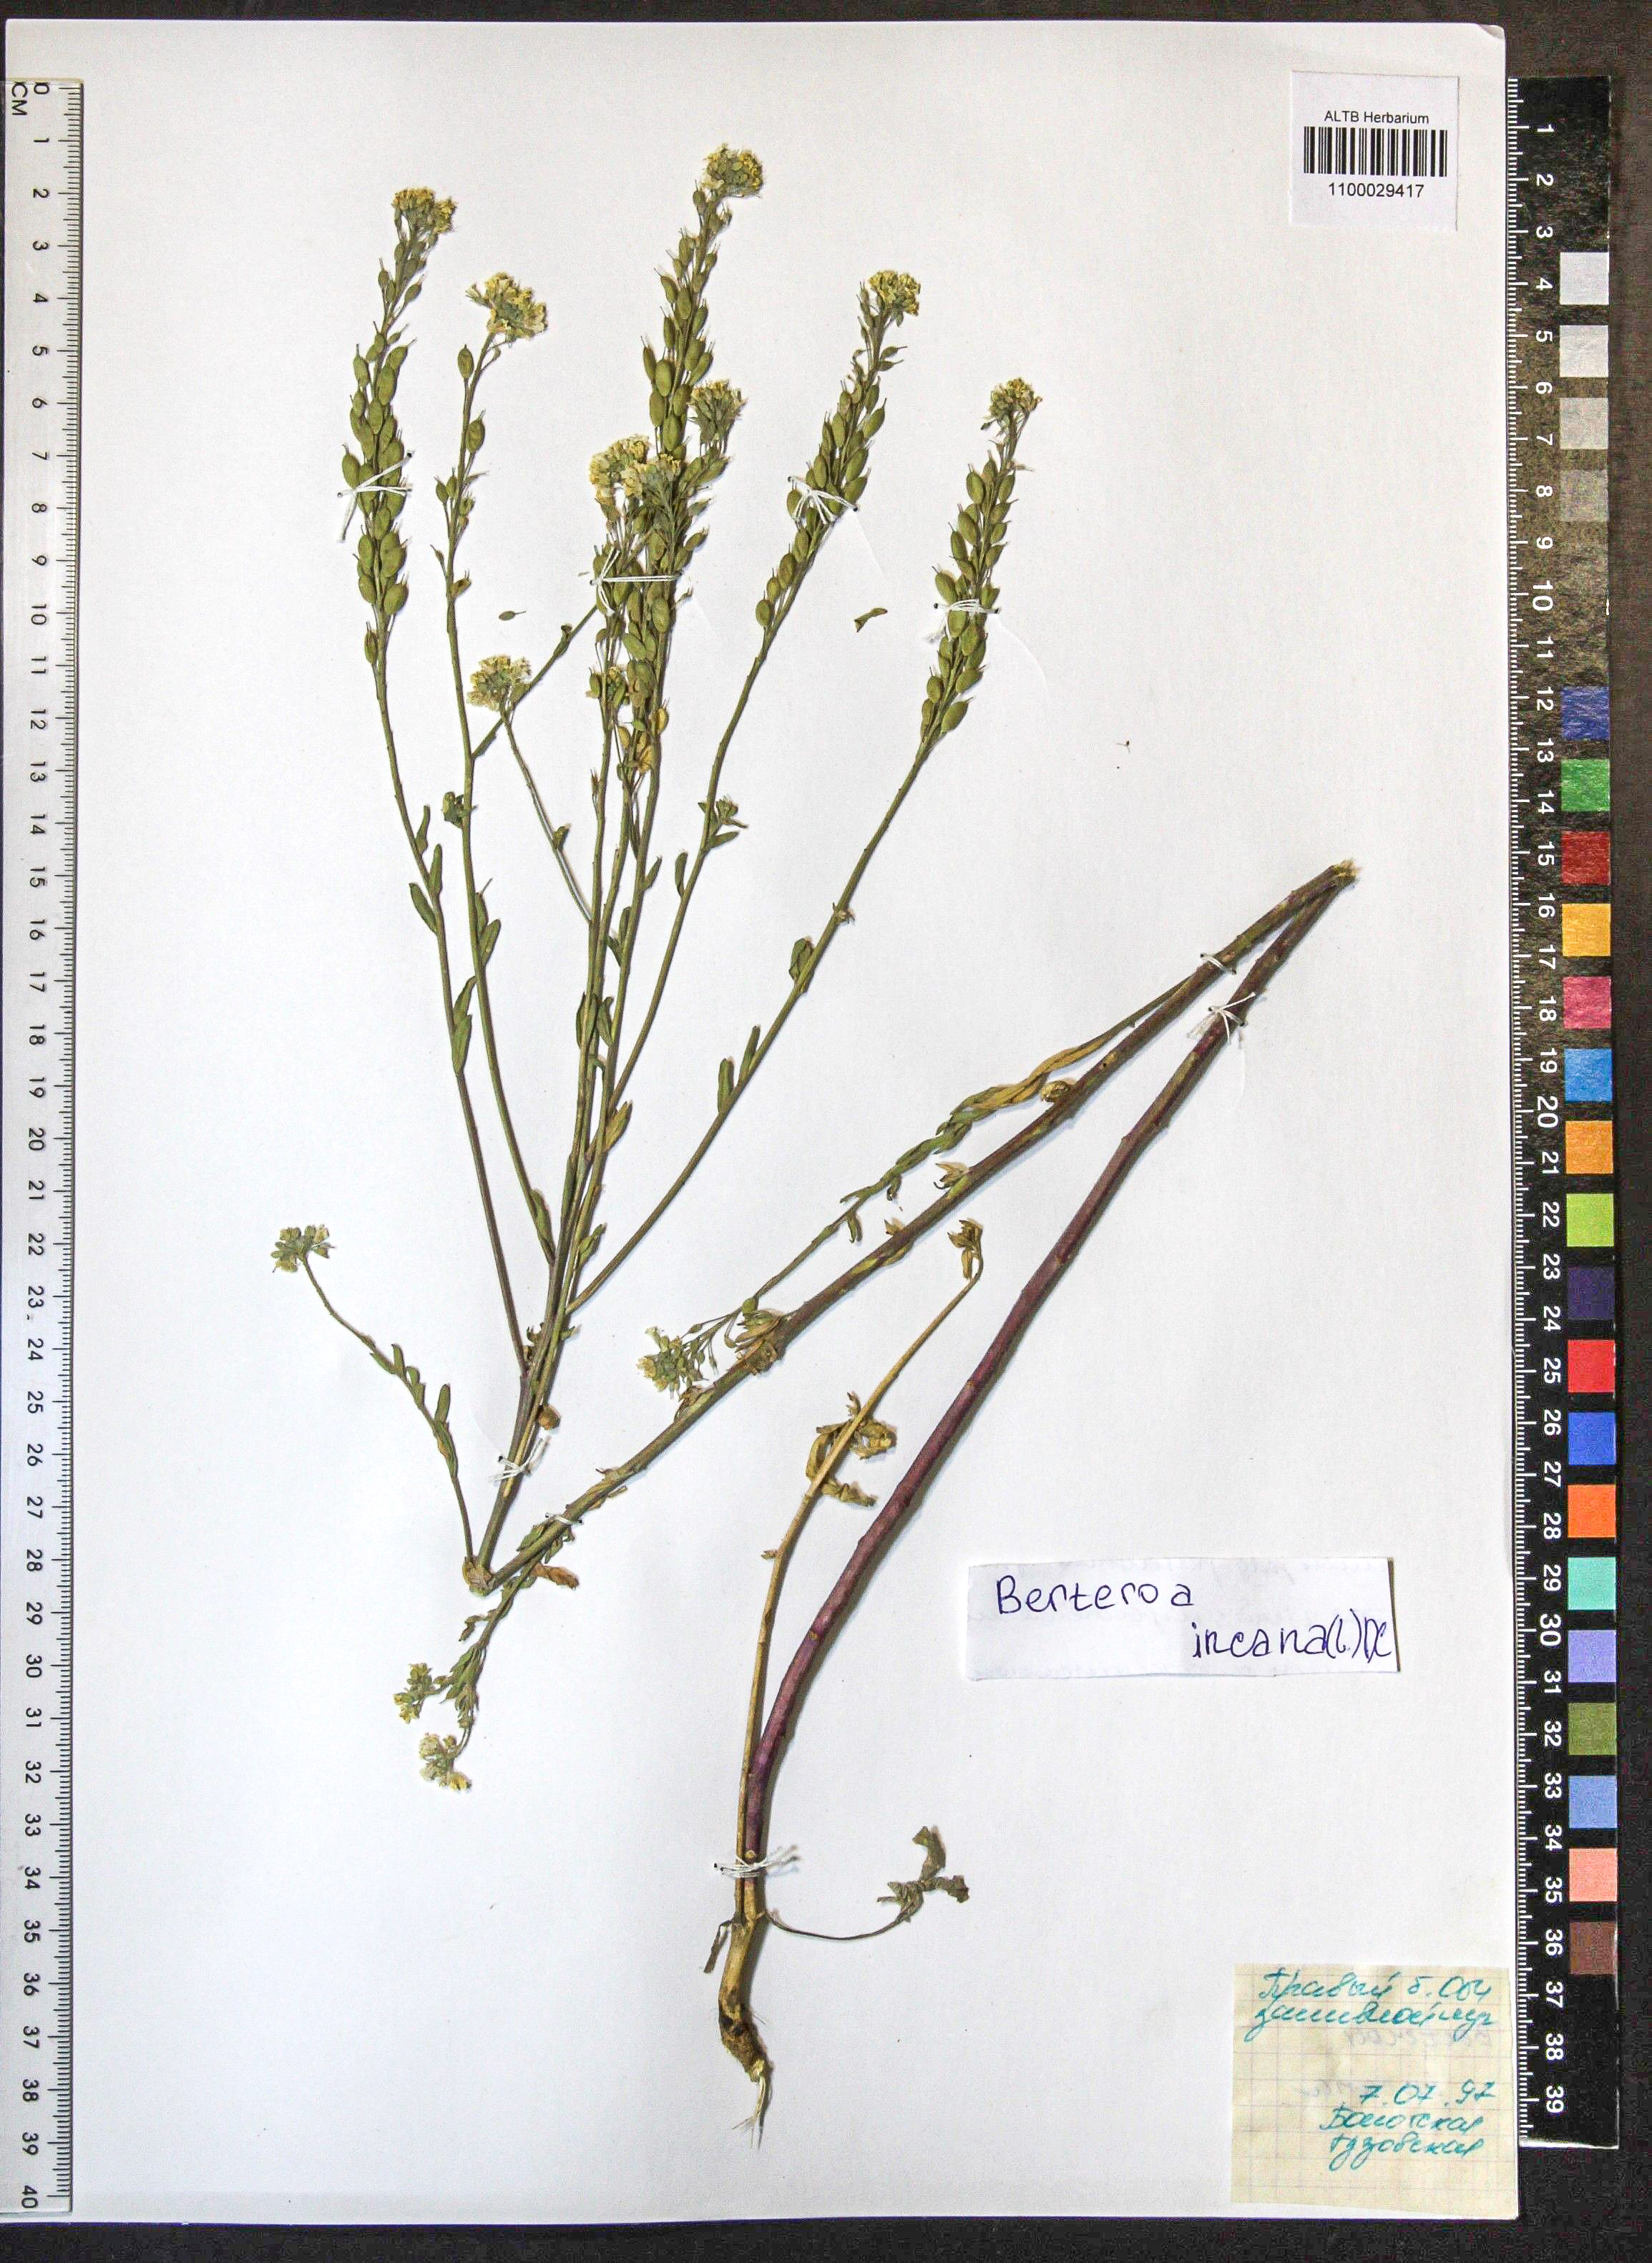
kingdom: Plantae
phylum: Tracheophyta
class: Magnoliopsida
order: Brassicales
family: Brassicaceae
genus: Berteroa
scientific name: Berteroa incana
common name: Hoary alison
